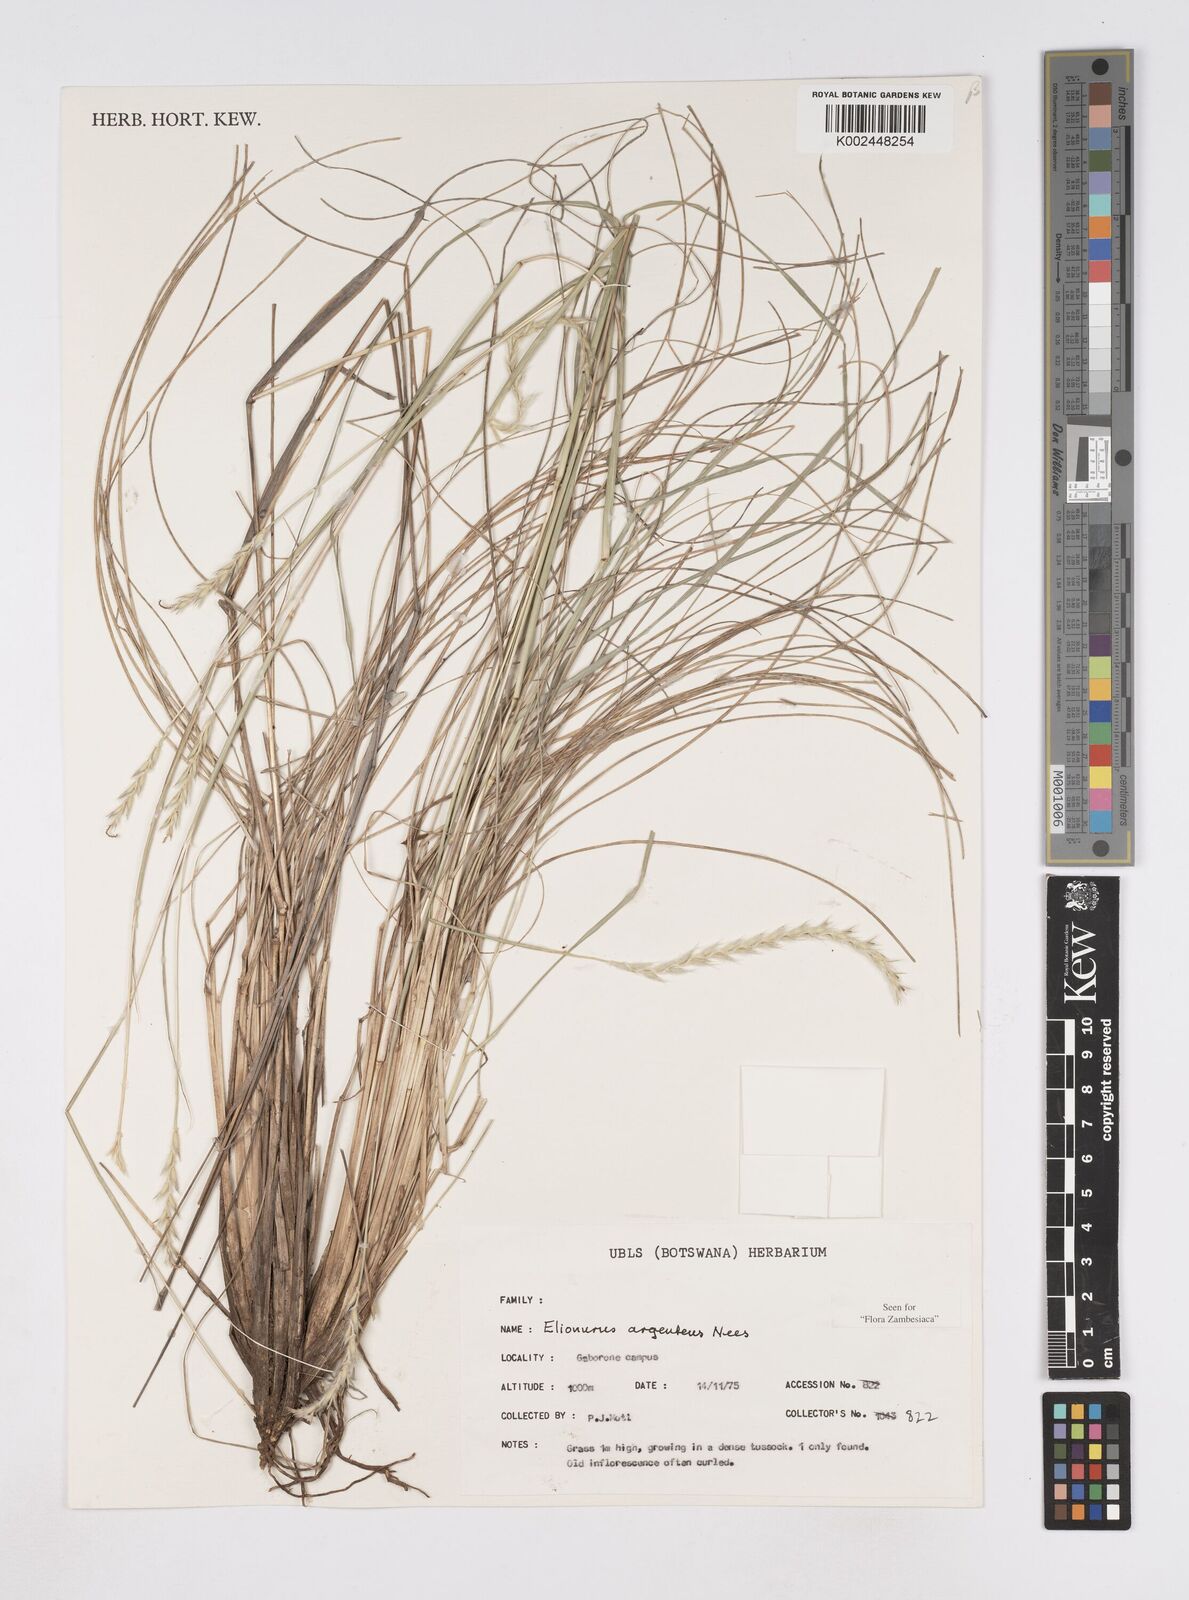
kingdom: Plantae
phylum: Tracheophyta
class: Liliopsida
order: Poales
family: Poaceae
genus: Elionurus
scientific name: Elionurus muticus
